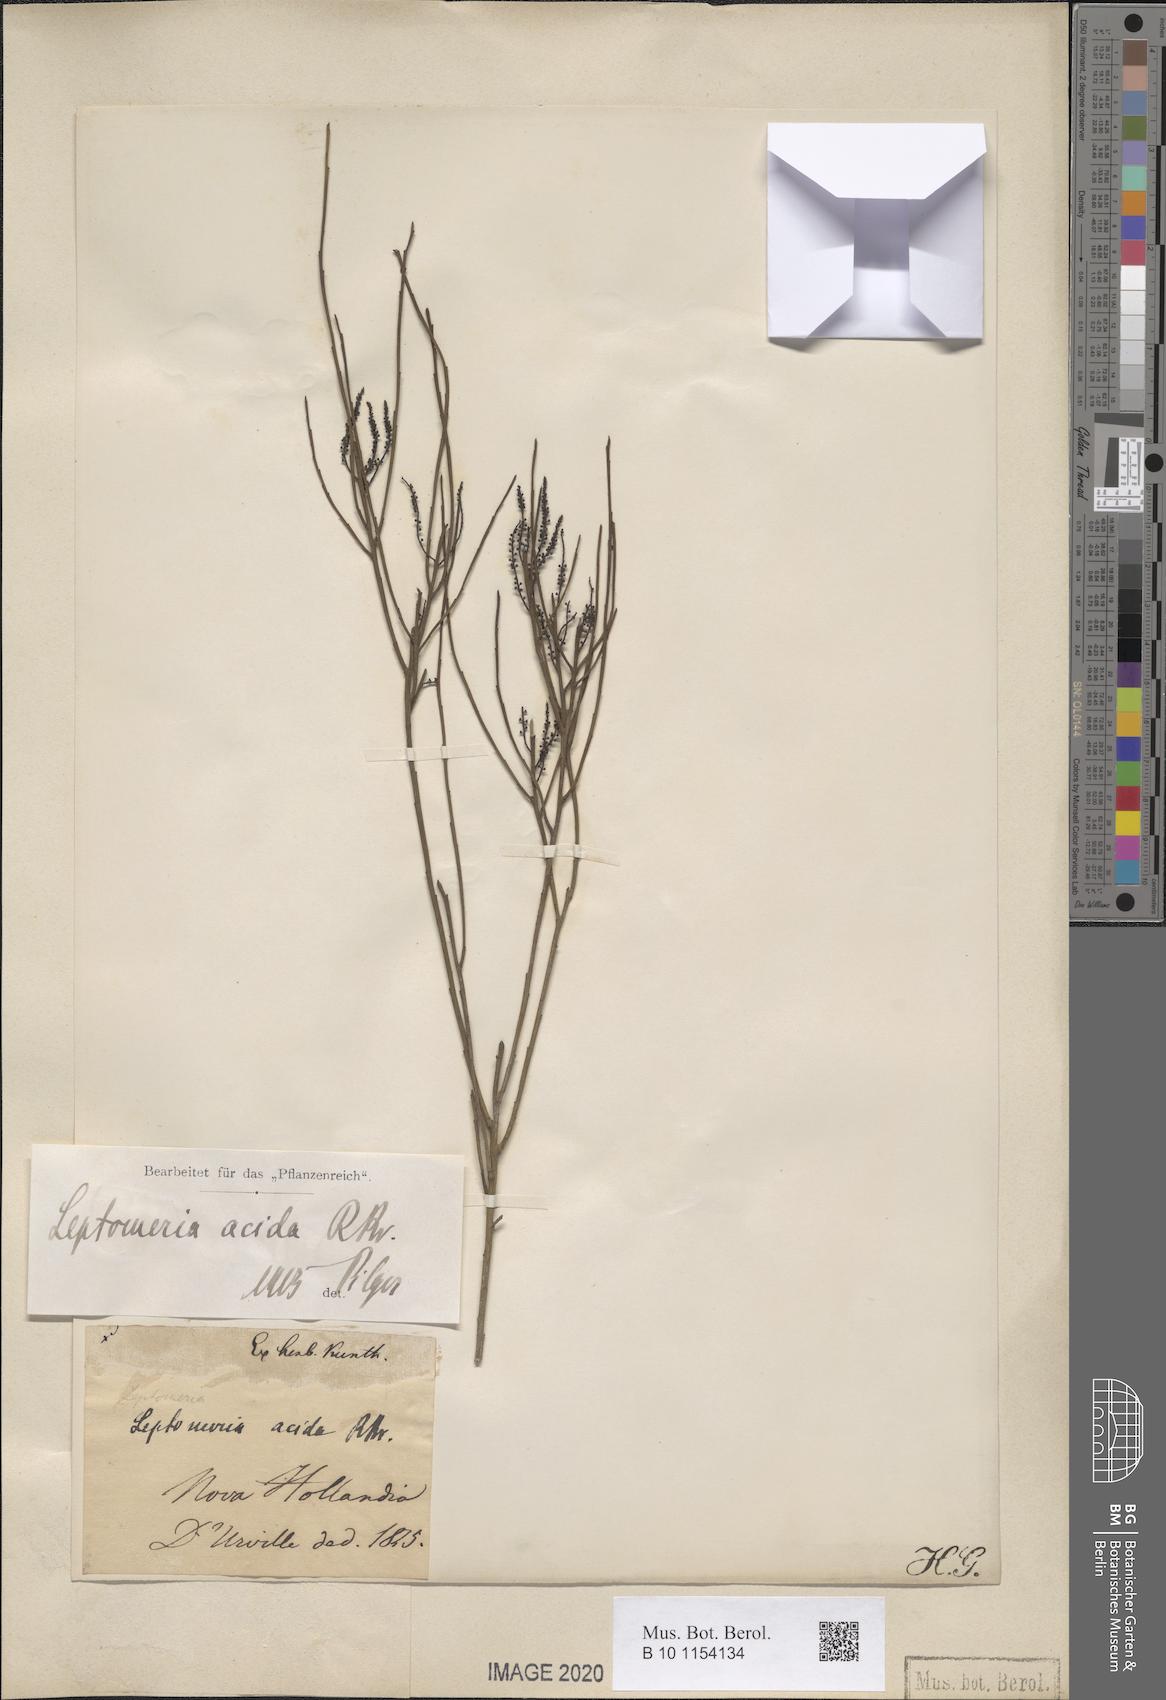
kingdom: Plantae
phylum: Tracheophyta
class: Magnoliopsida
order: Santalales
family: Amphorogynaceae
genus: Leptomeria
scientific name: Leptomeria acida
